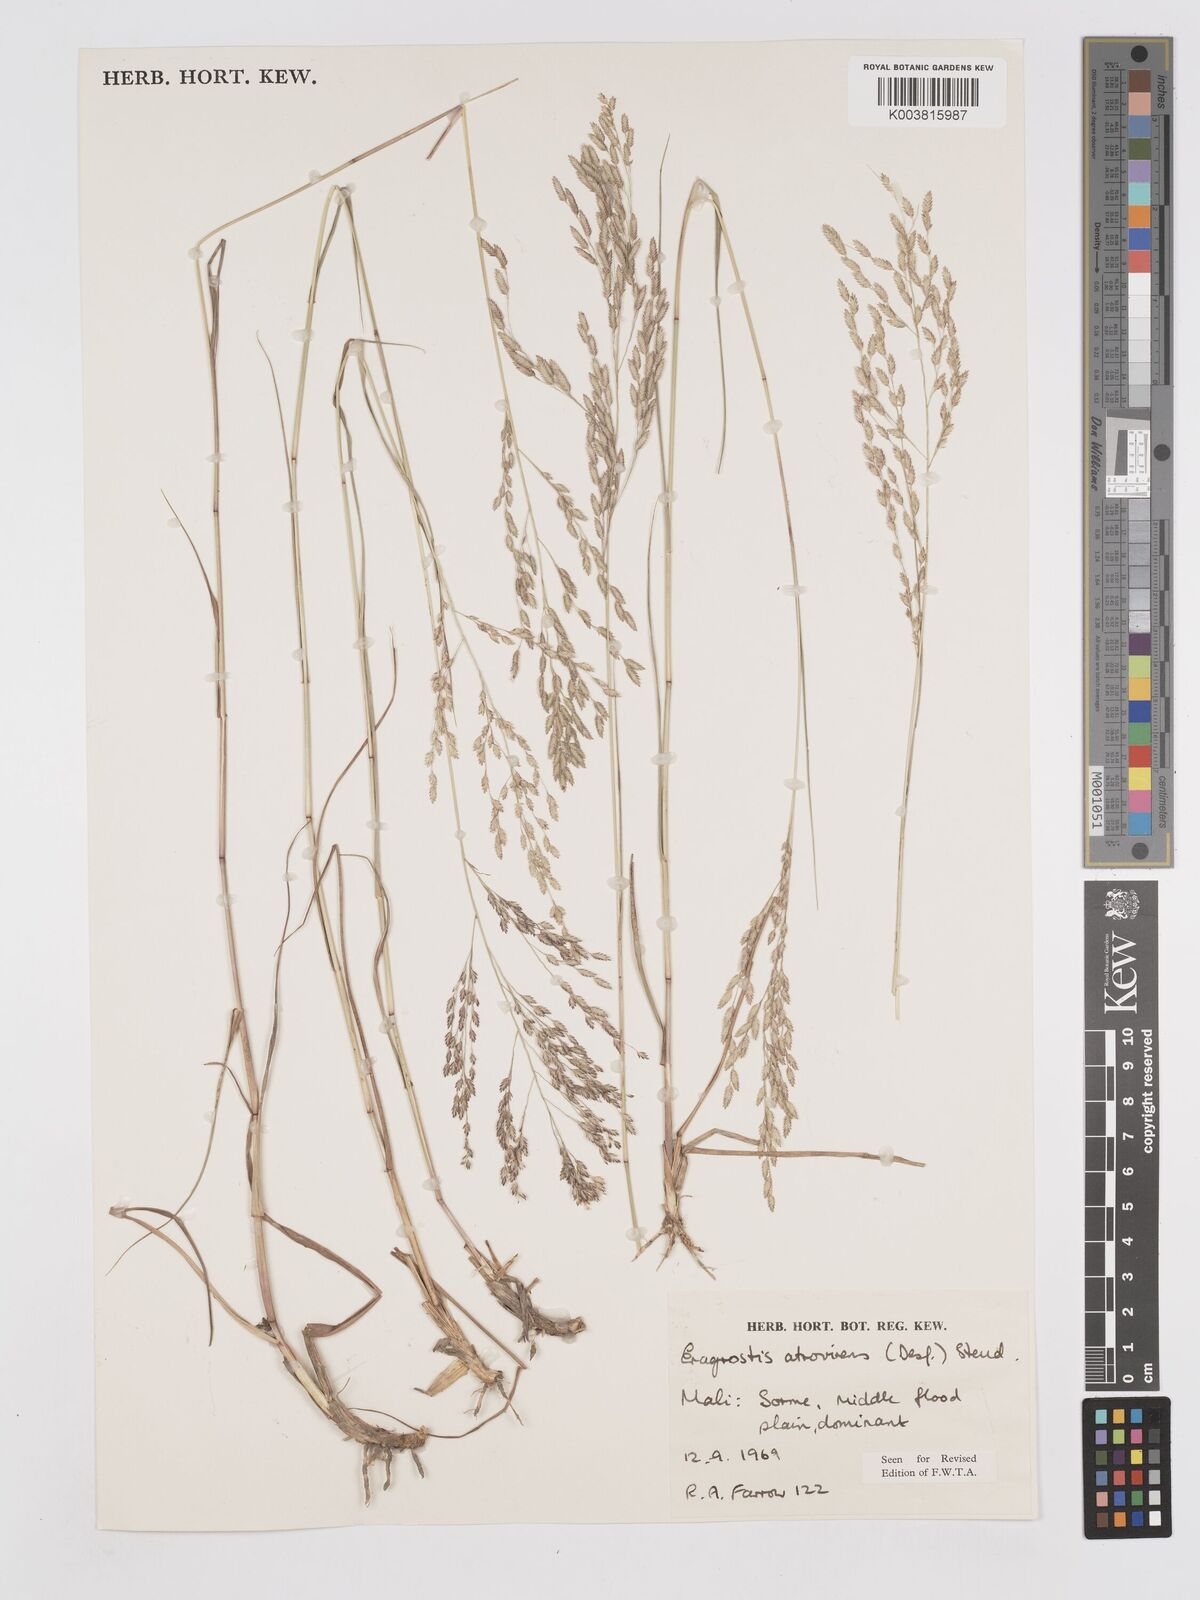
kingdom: Plantae
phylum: Tracheophyta
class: Liliopsida
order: Poales
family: Poaceae
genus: Eragrostis
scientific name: Eragrostis atrovirens
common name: Thalia lovegrass
